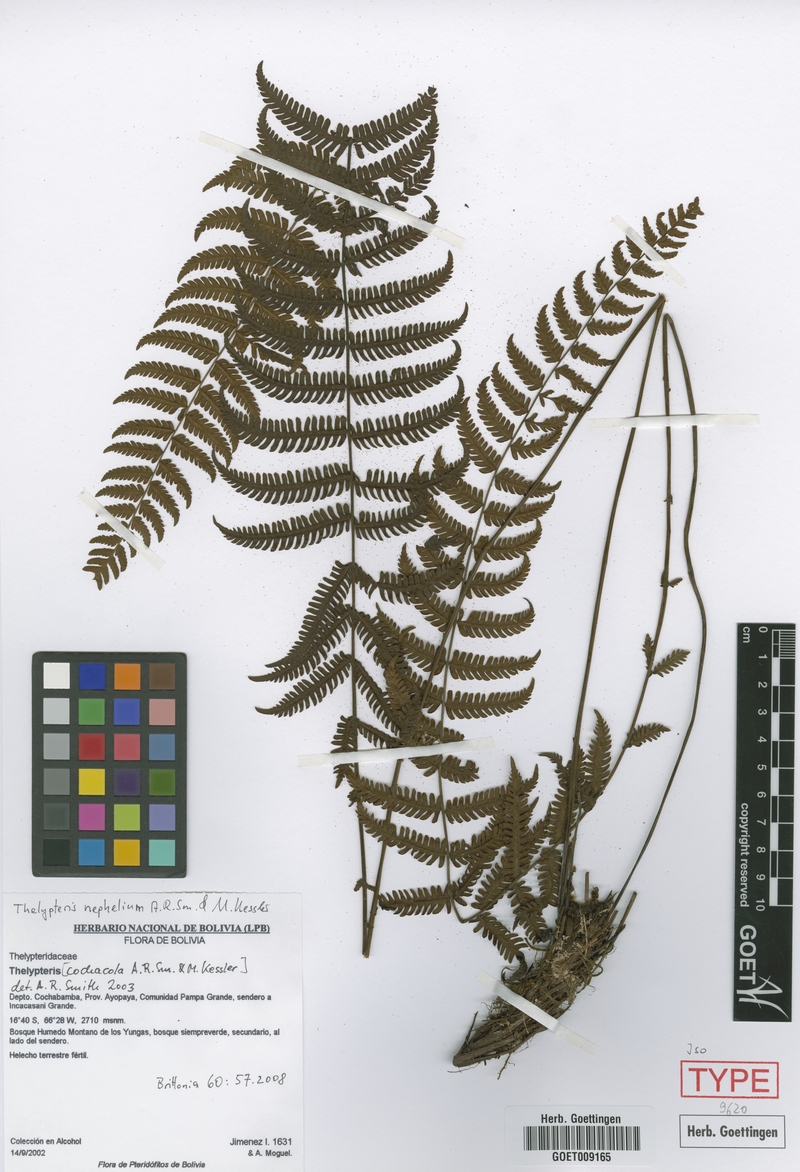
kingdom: Plantae
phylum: Tracheophyta
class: Polypodiopsida
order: Polypodiales
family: Thelypteridaceae
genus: Amauropelta
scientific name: Amauropelta nephelium
